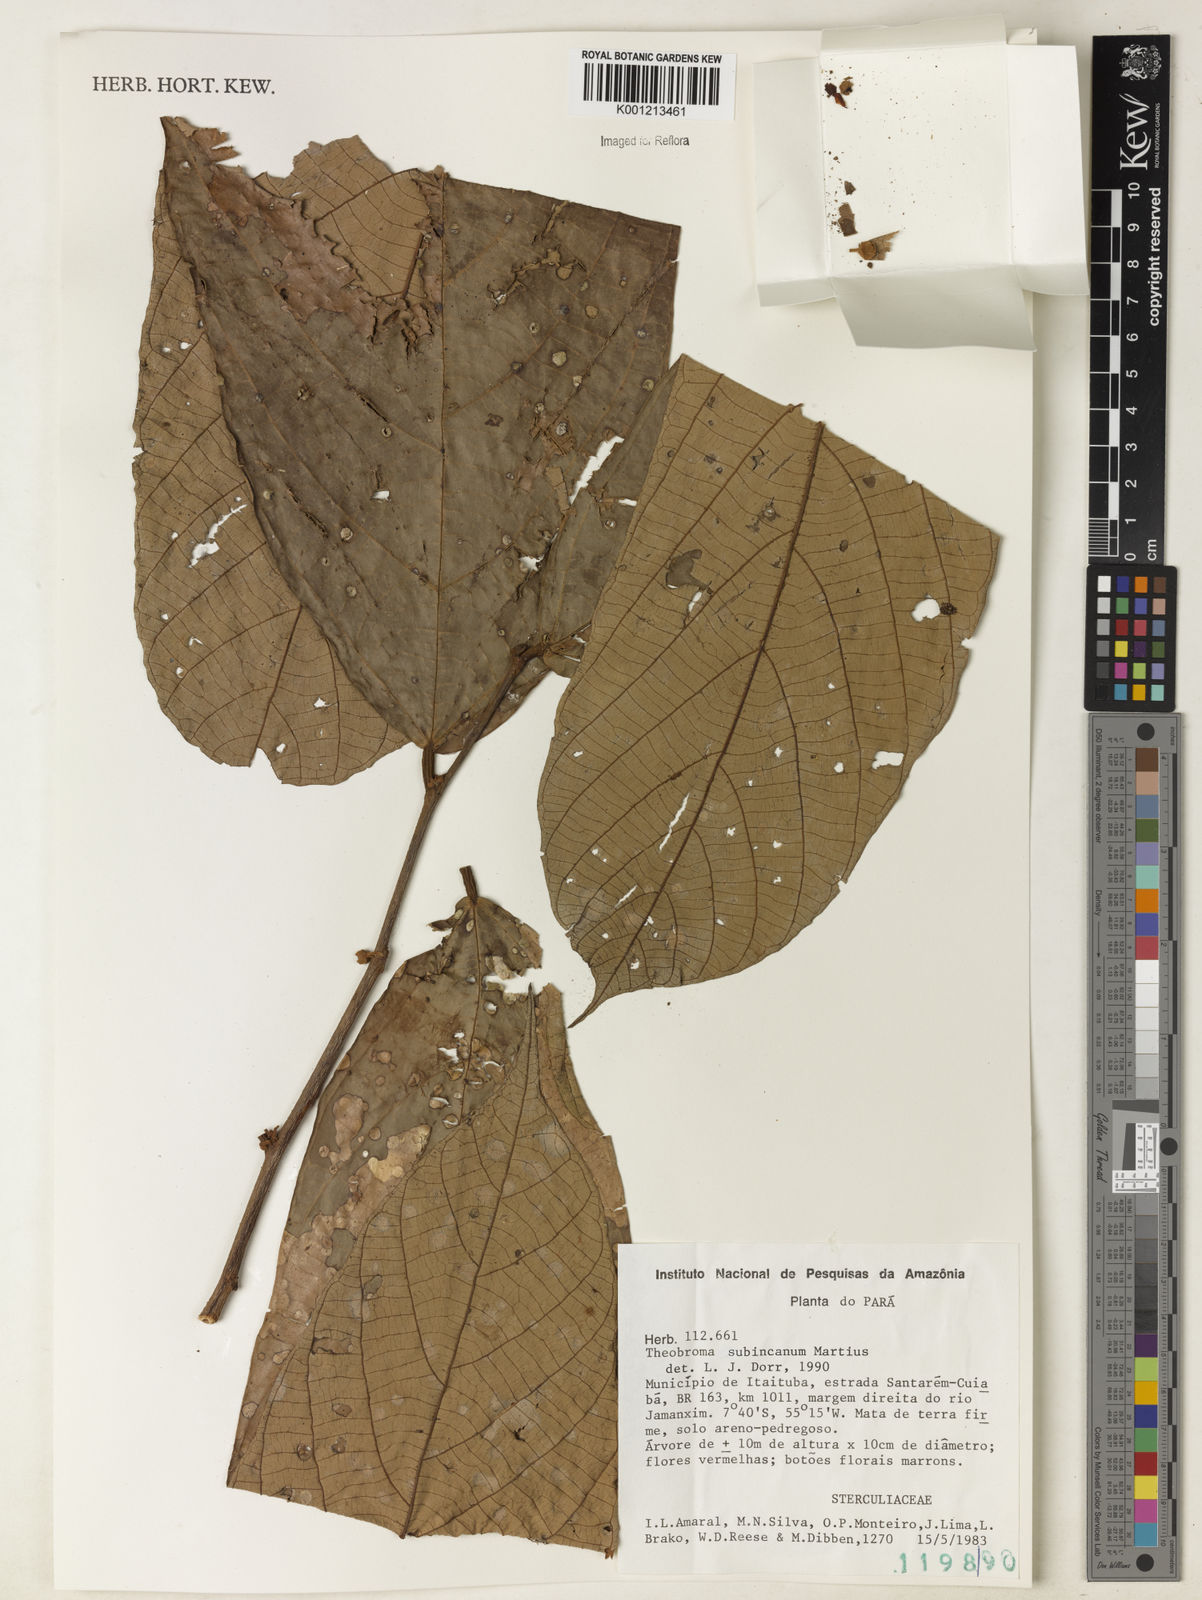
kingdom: Plantae
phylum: Tracheophyta
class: Magnoliopsida
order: Malvales
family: Malvaceae
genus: Theobroma
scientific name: Theobroma subincanum
